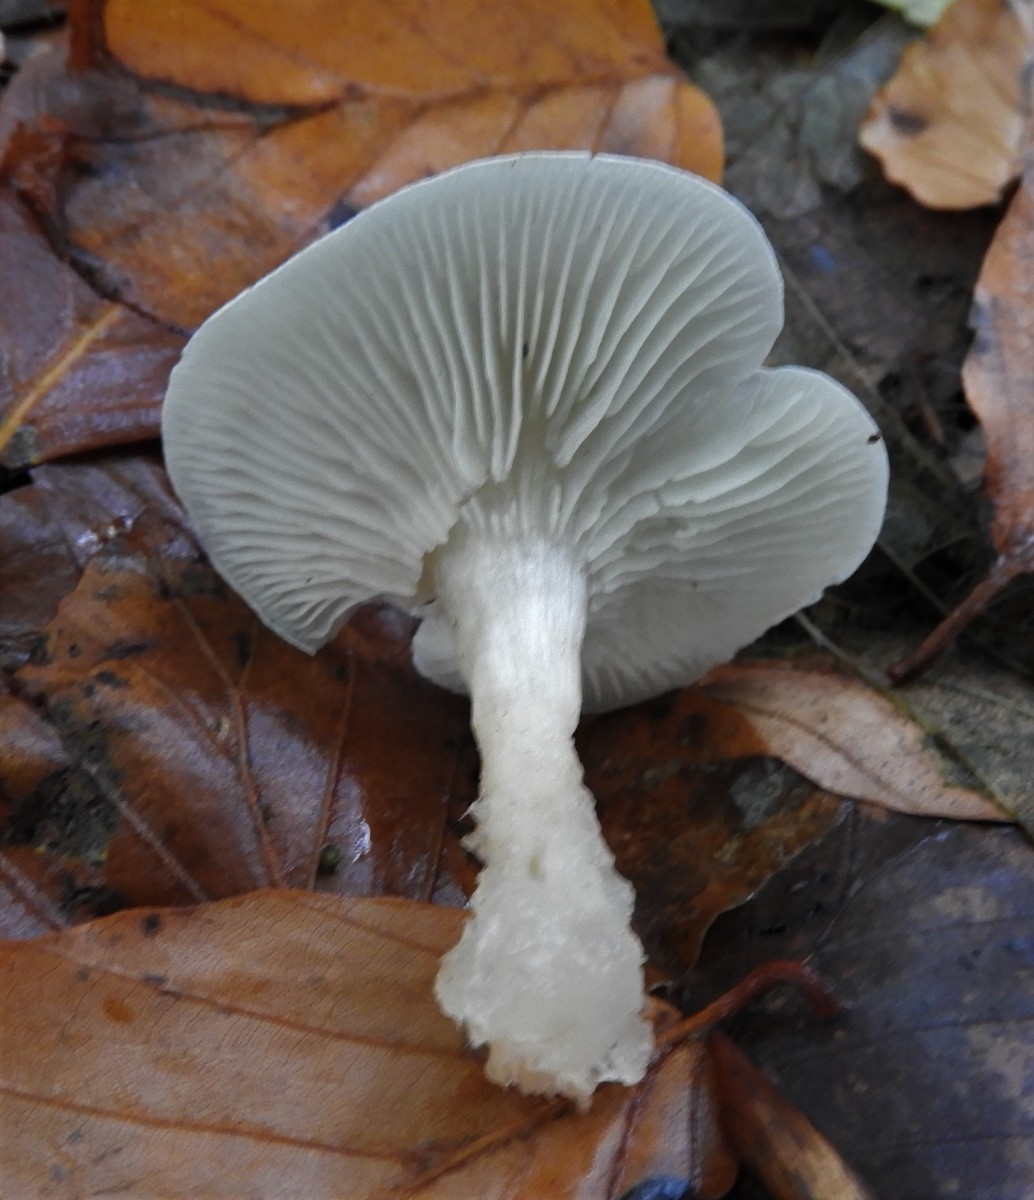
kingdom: Fungi
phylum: Basidiomycota
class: Agaricomycetes
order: Agaricales
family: Tricholomataceae
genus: Clitocybe
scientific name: Clitocybe odora
